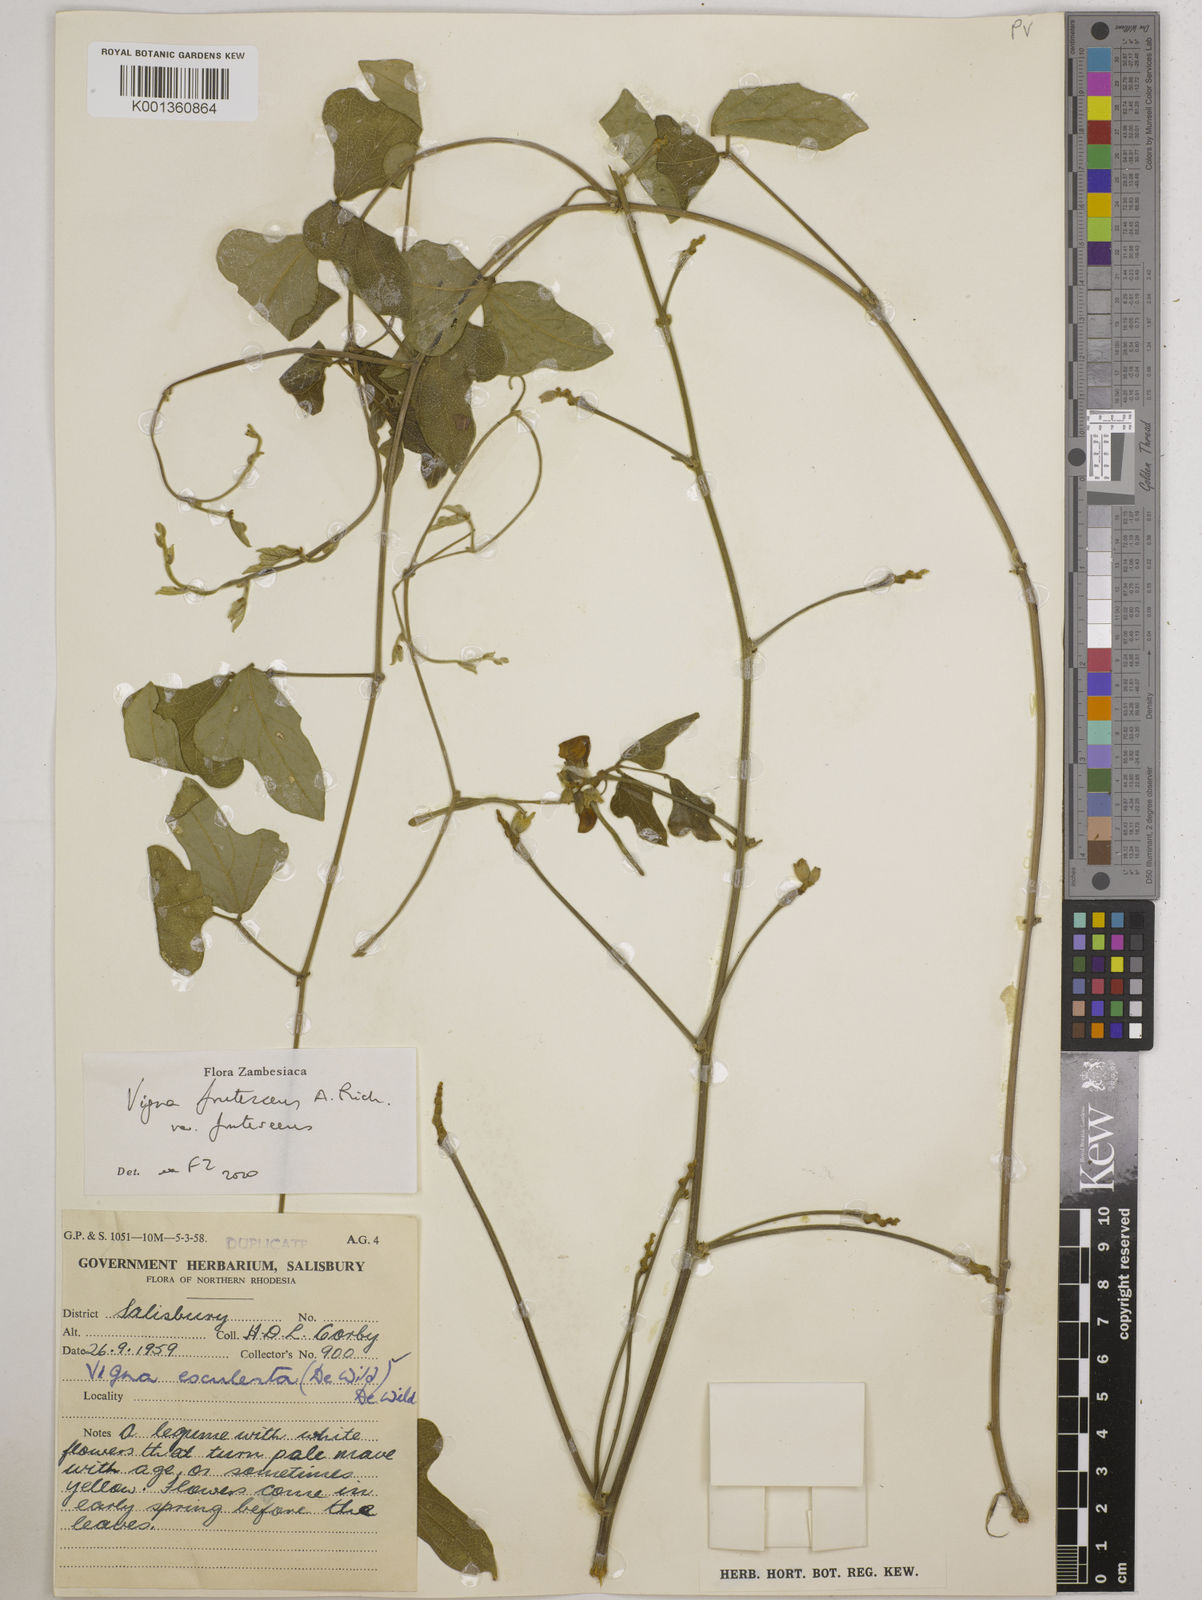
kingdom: Plantae
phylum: Tracheophyta
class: Magnoliopsida
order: Fabales
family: Fabaceae
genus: Vigna
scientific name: Vigna
